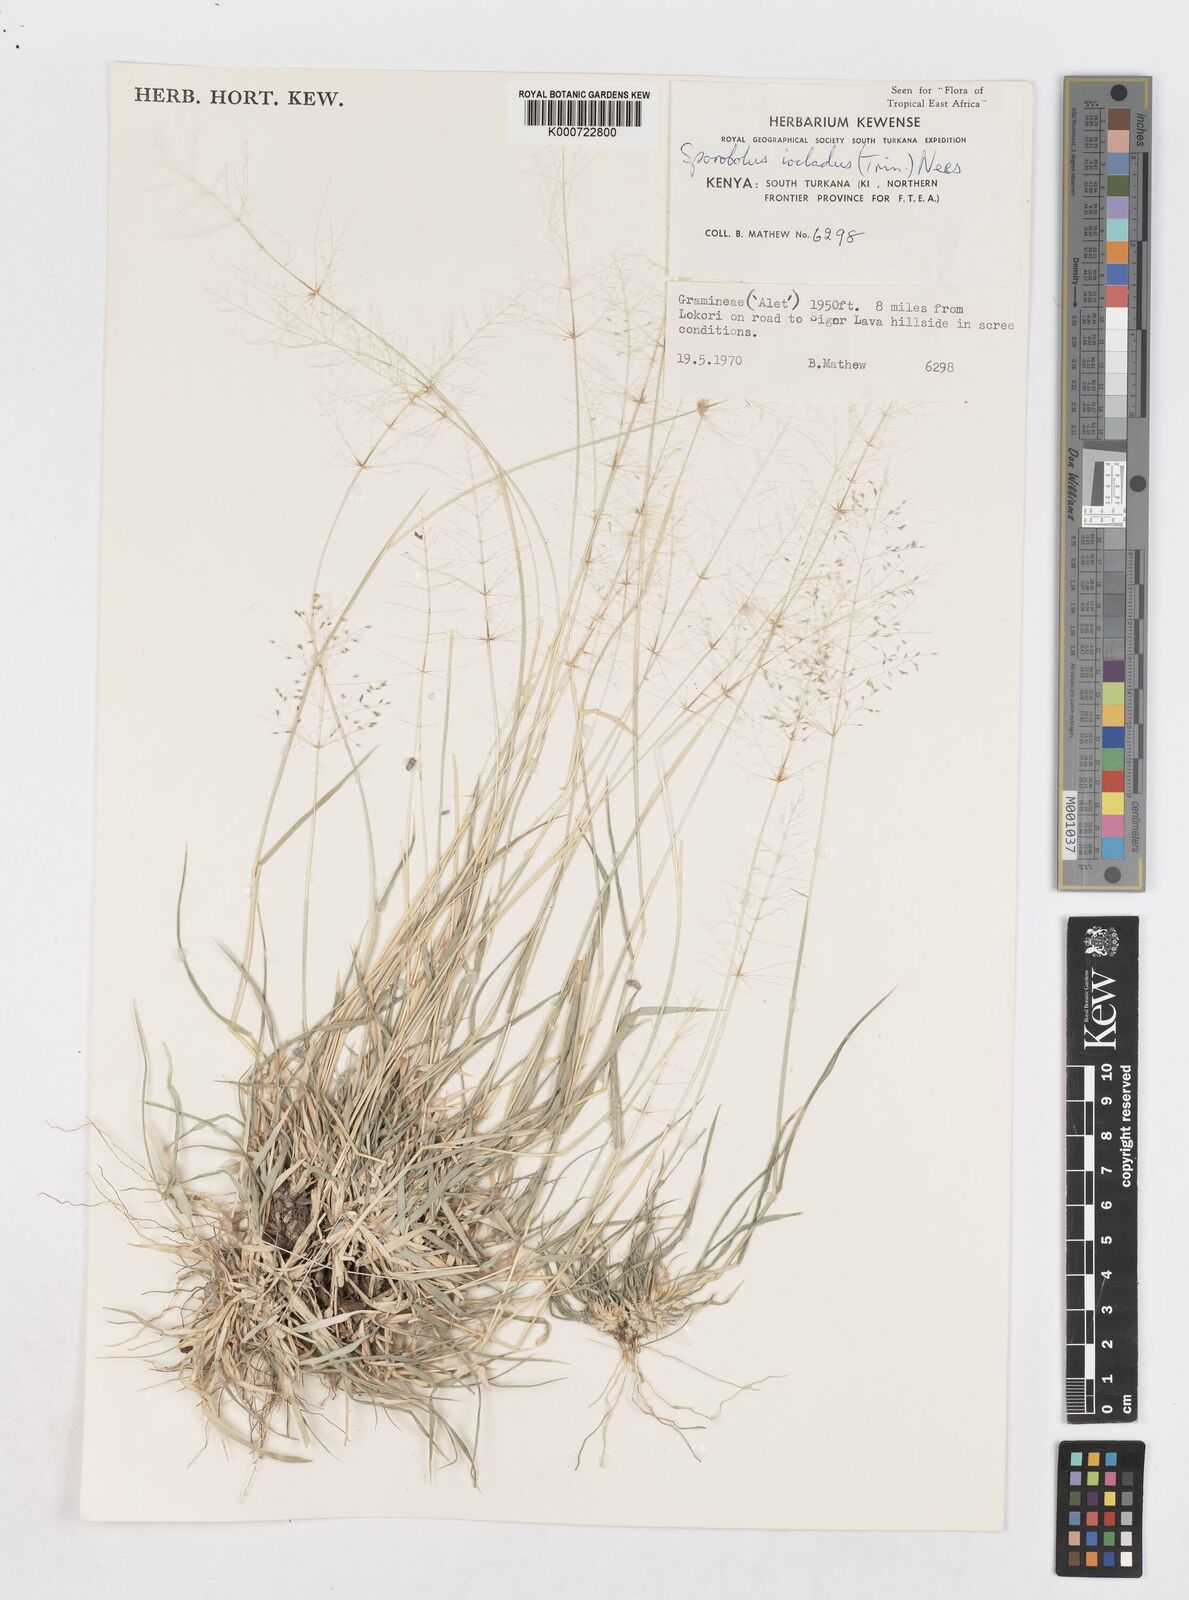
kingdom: Plantae
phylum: Tracheophyta
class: Liliopsida
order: Poales
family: Poaceae
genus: Sporobolus
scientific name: Sporobolus ioclados
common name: Pan dropseed
